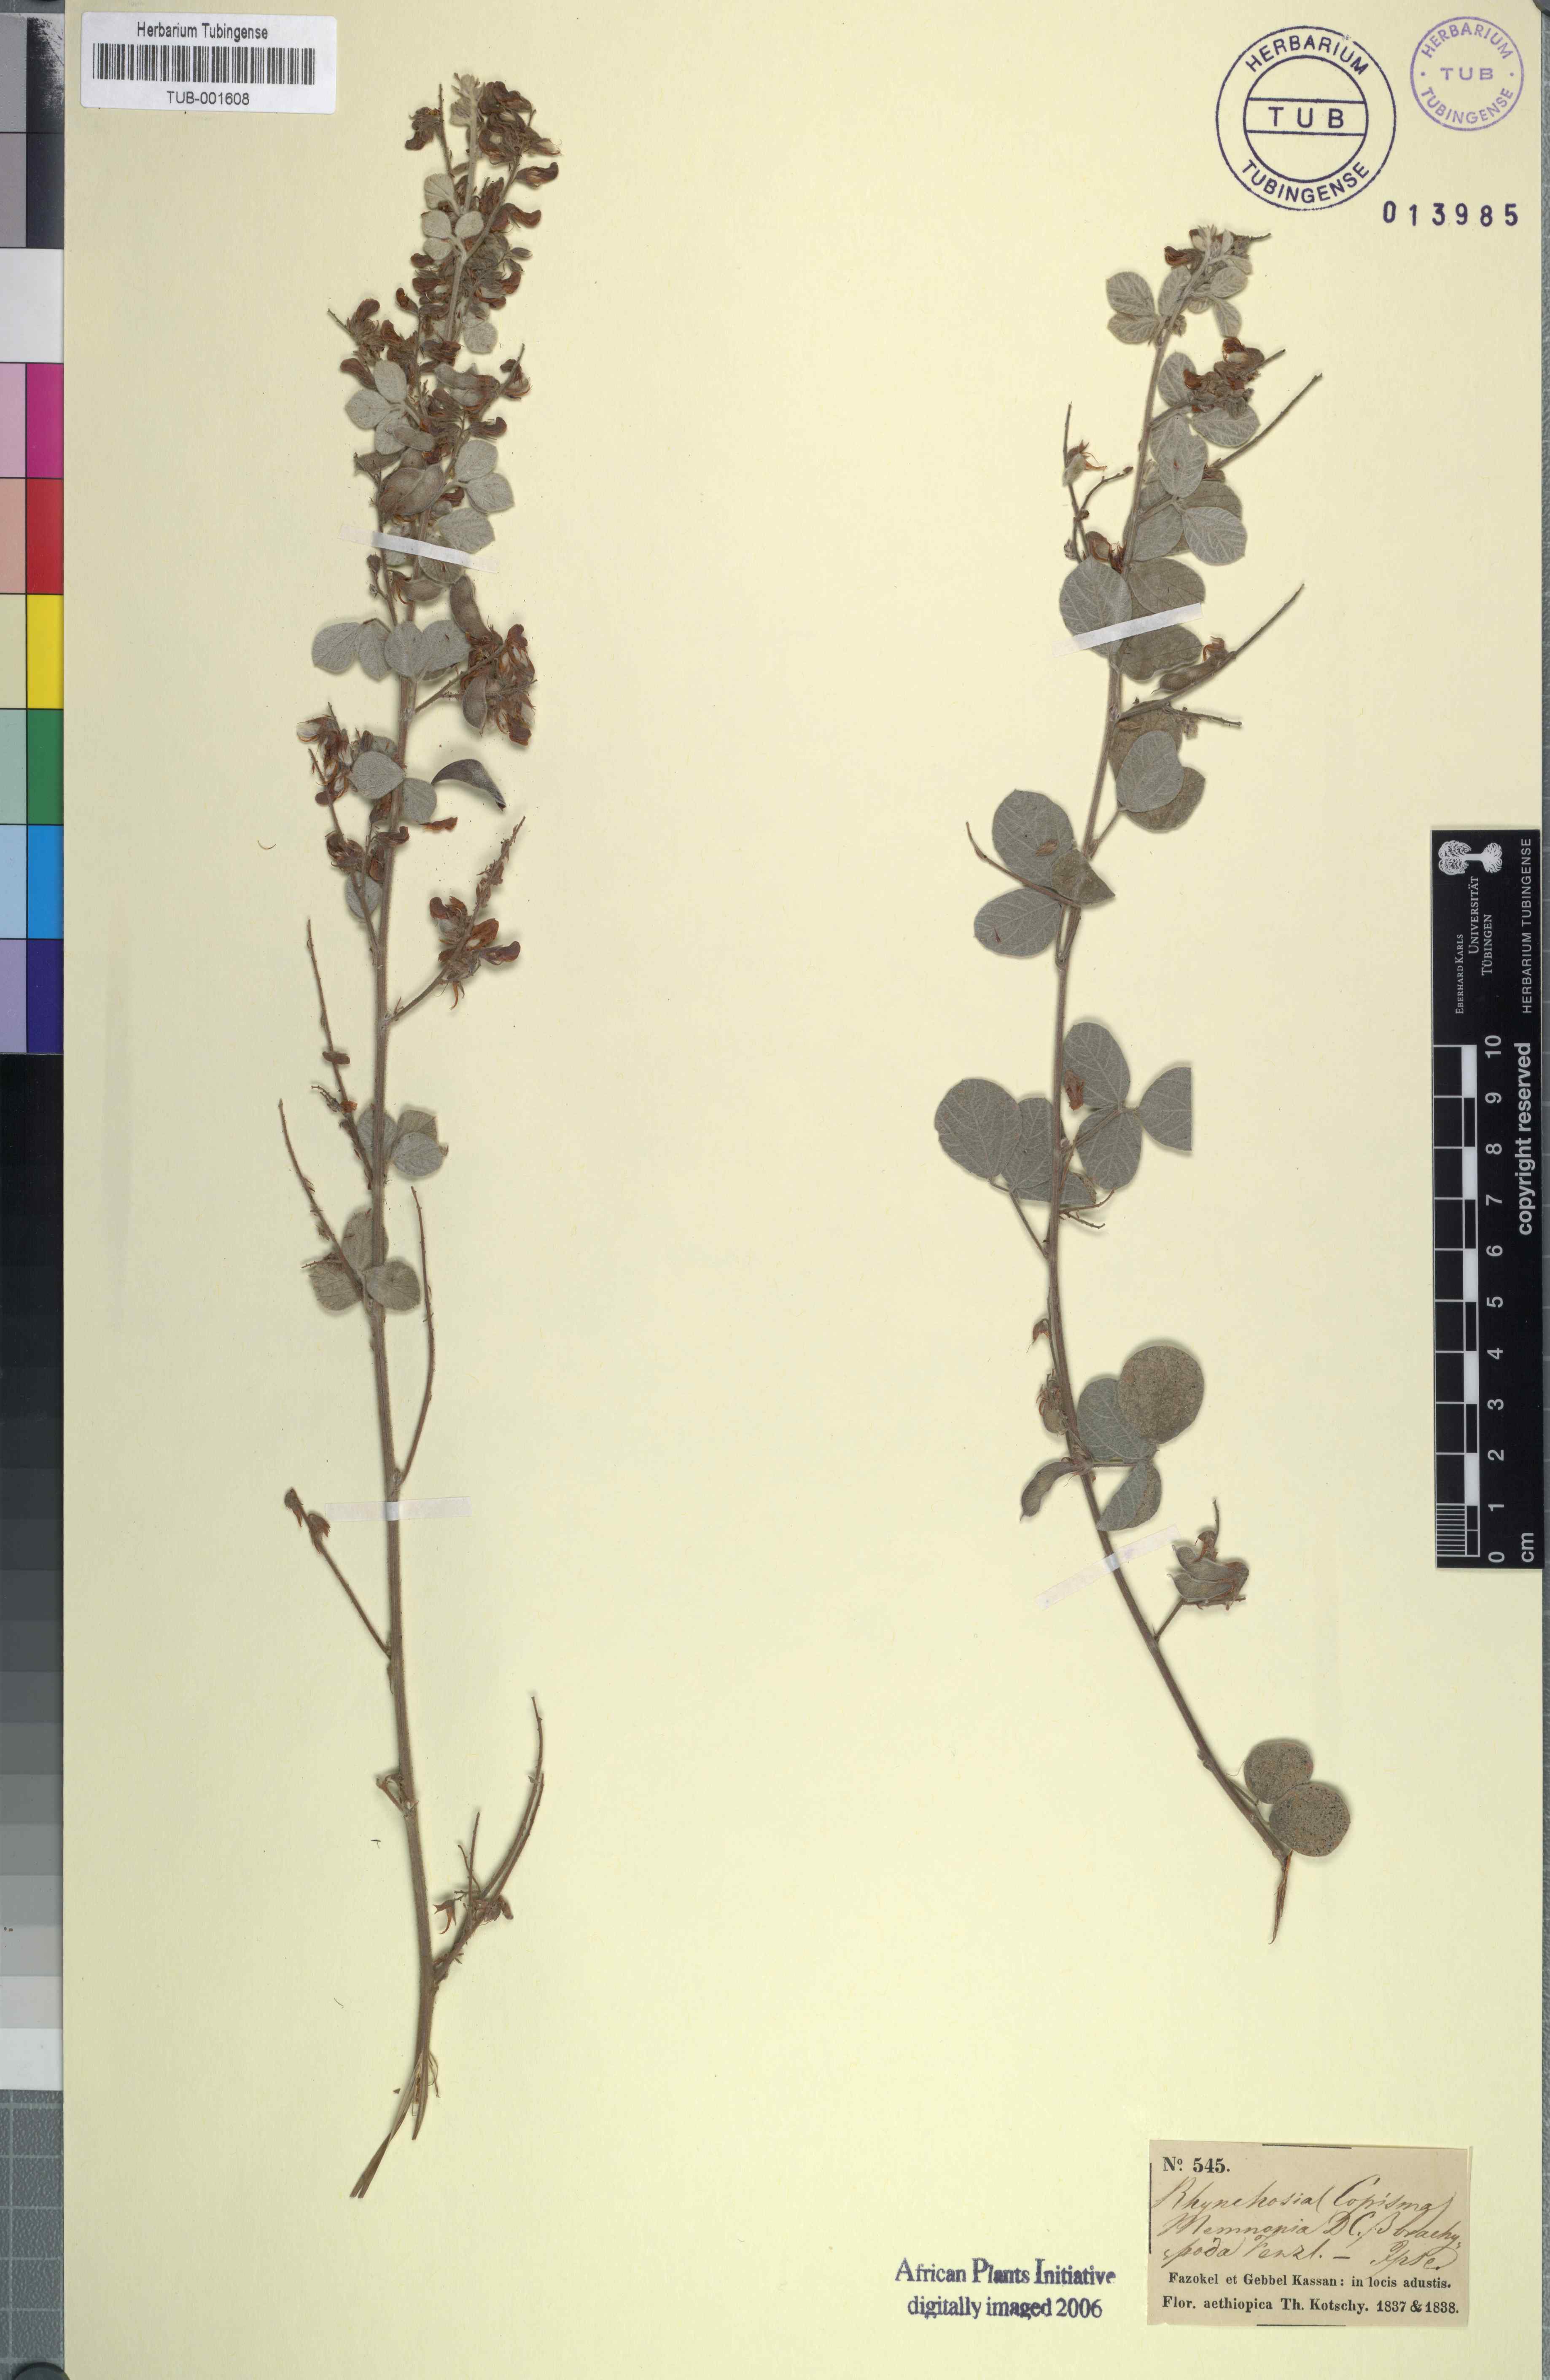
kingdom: Plantae
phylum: Tracheophyta
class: Magnoliopsida
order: Fabales
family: Fabaceae
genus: Rhynchosia
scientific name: Rhynchosia minima
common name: Least snoutbean
